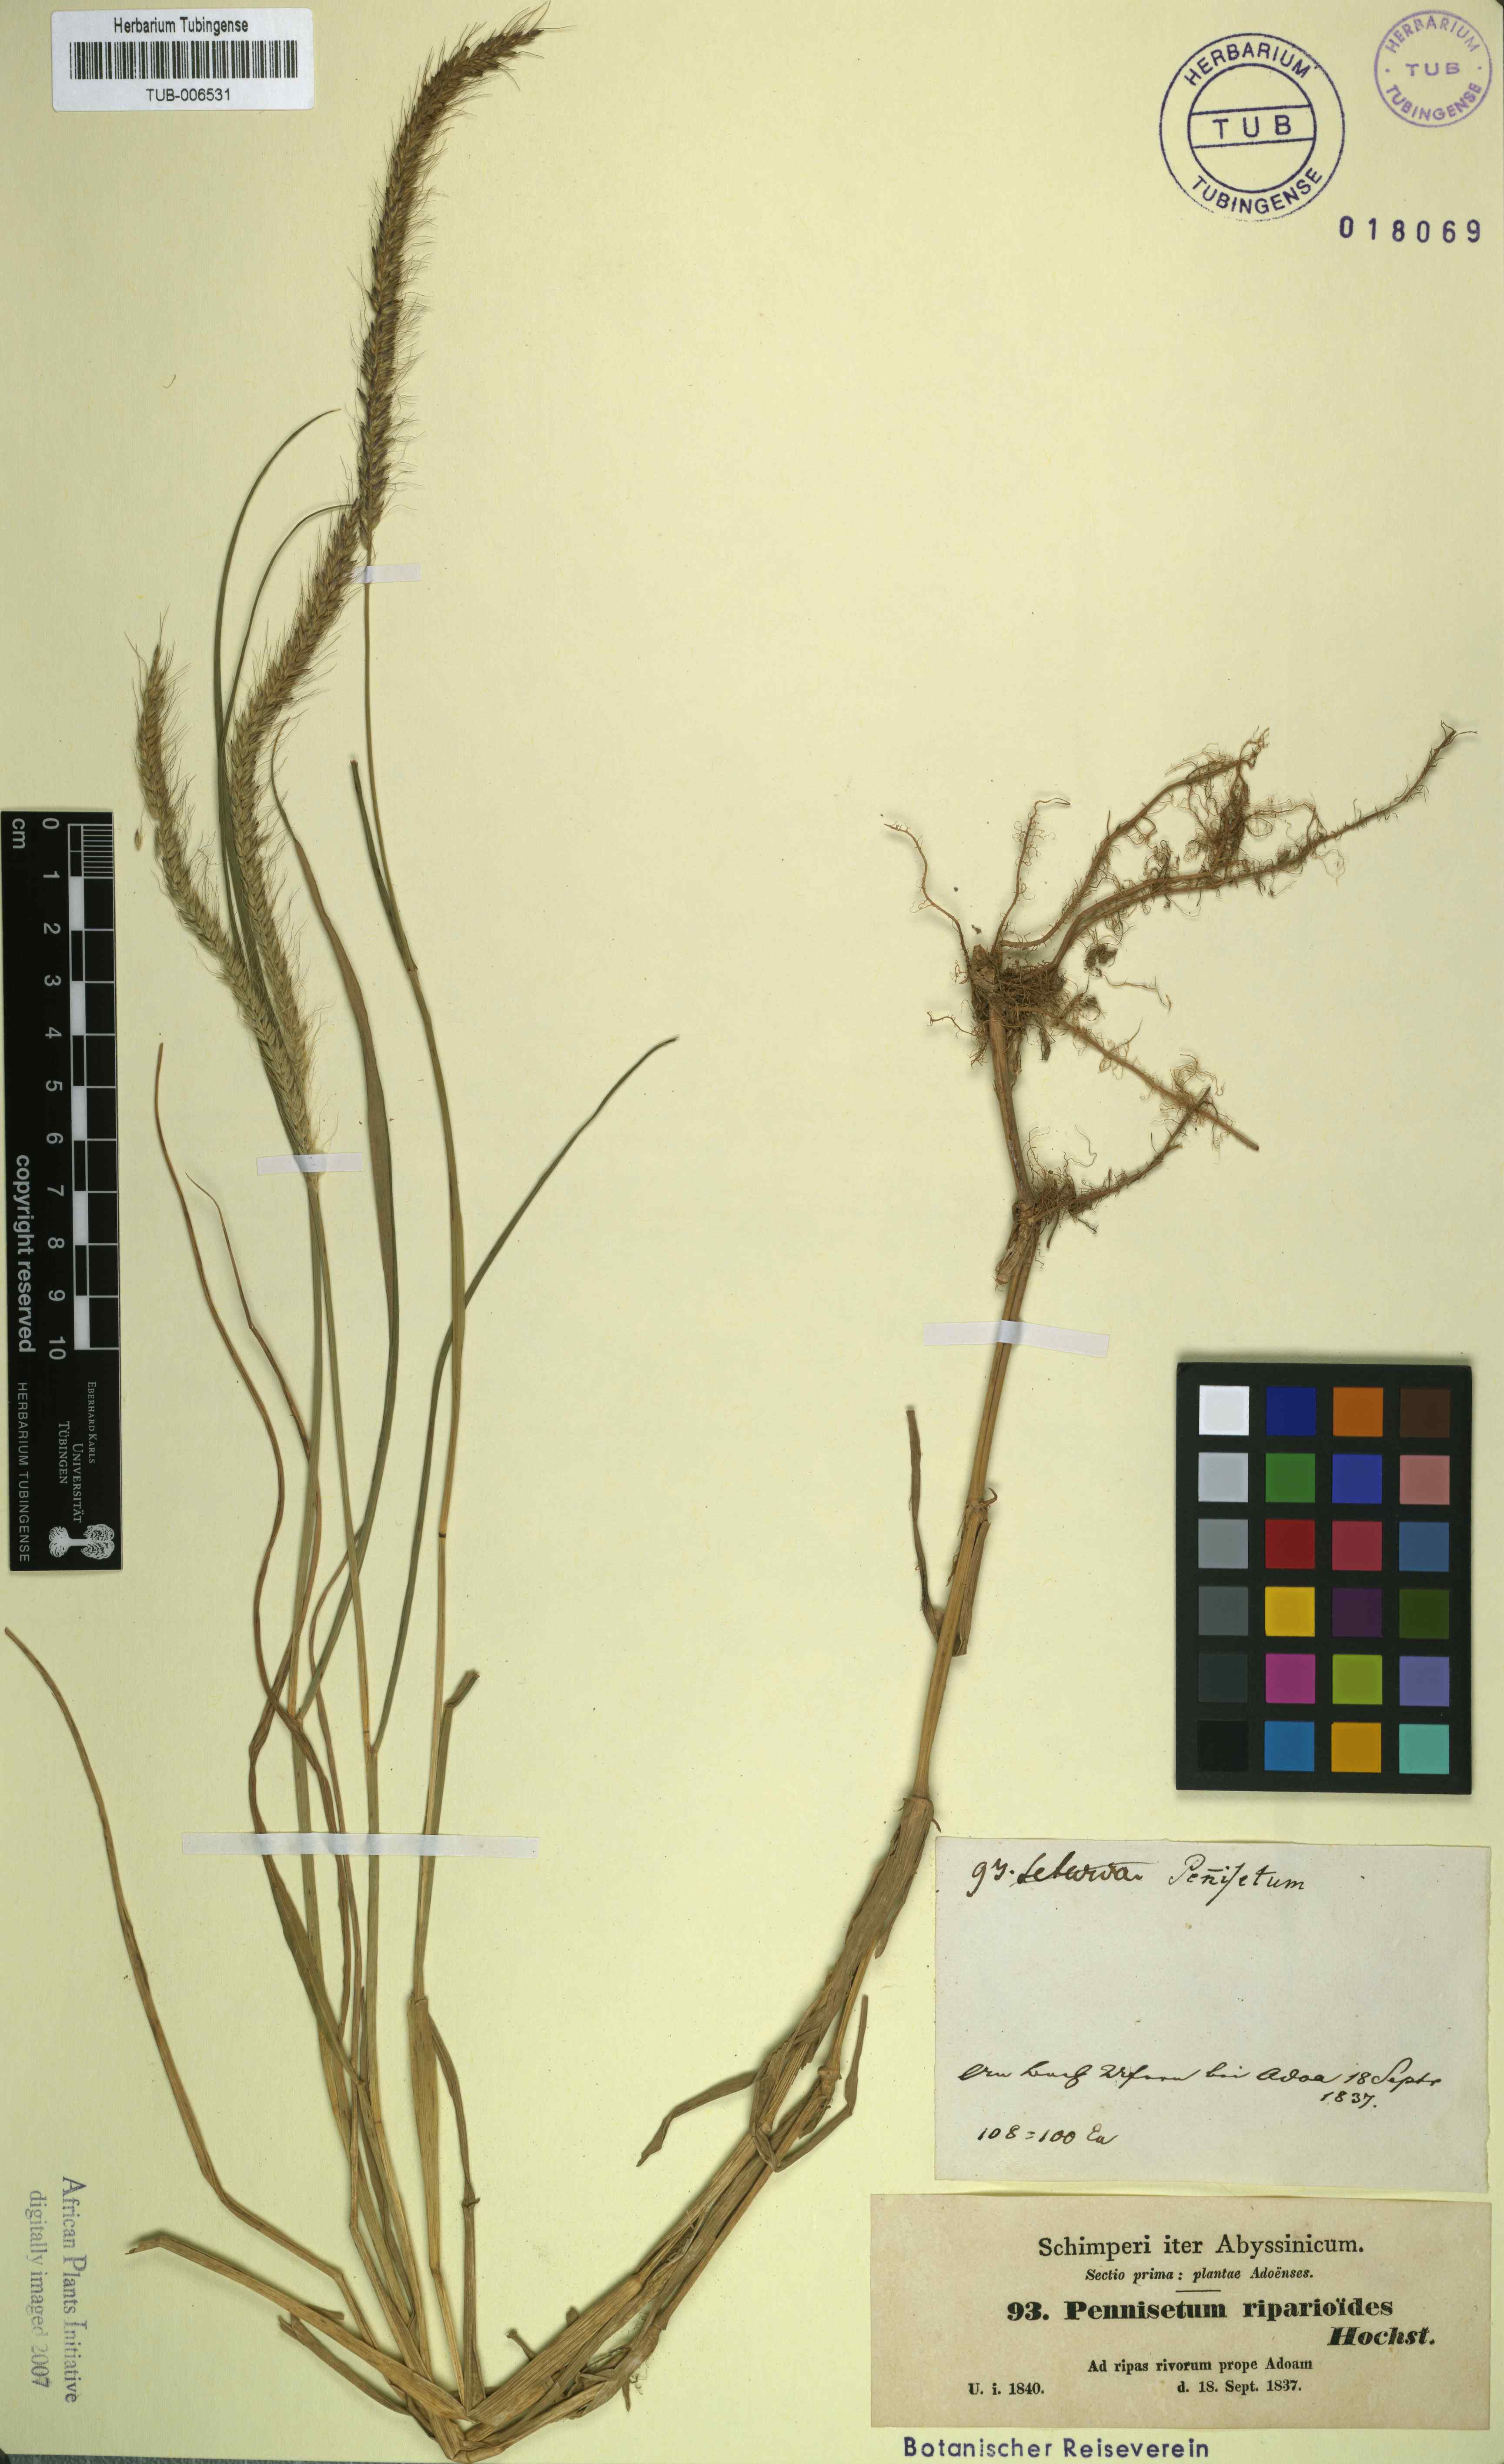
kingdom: Plantae
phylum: Tracheophyta
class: Liliopsida
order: Poales
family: Poaceae
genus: Cenchrus
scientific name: Cenchrus caudatus
